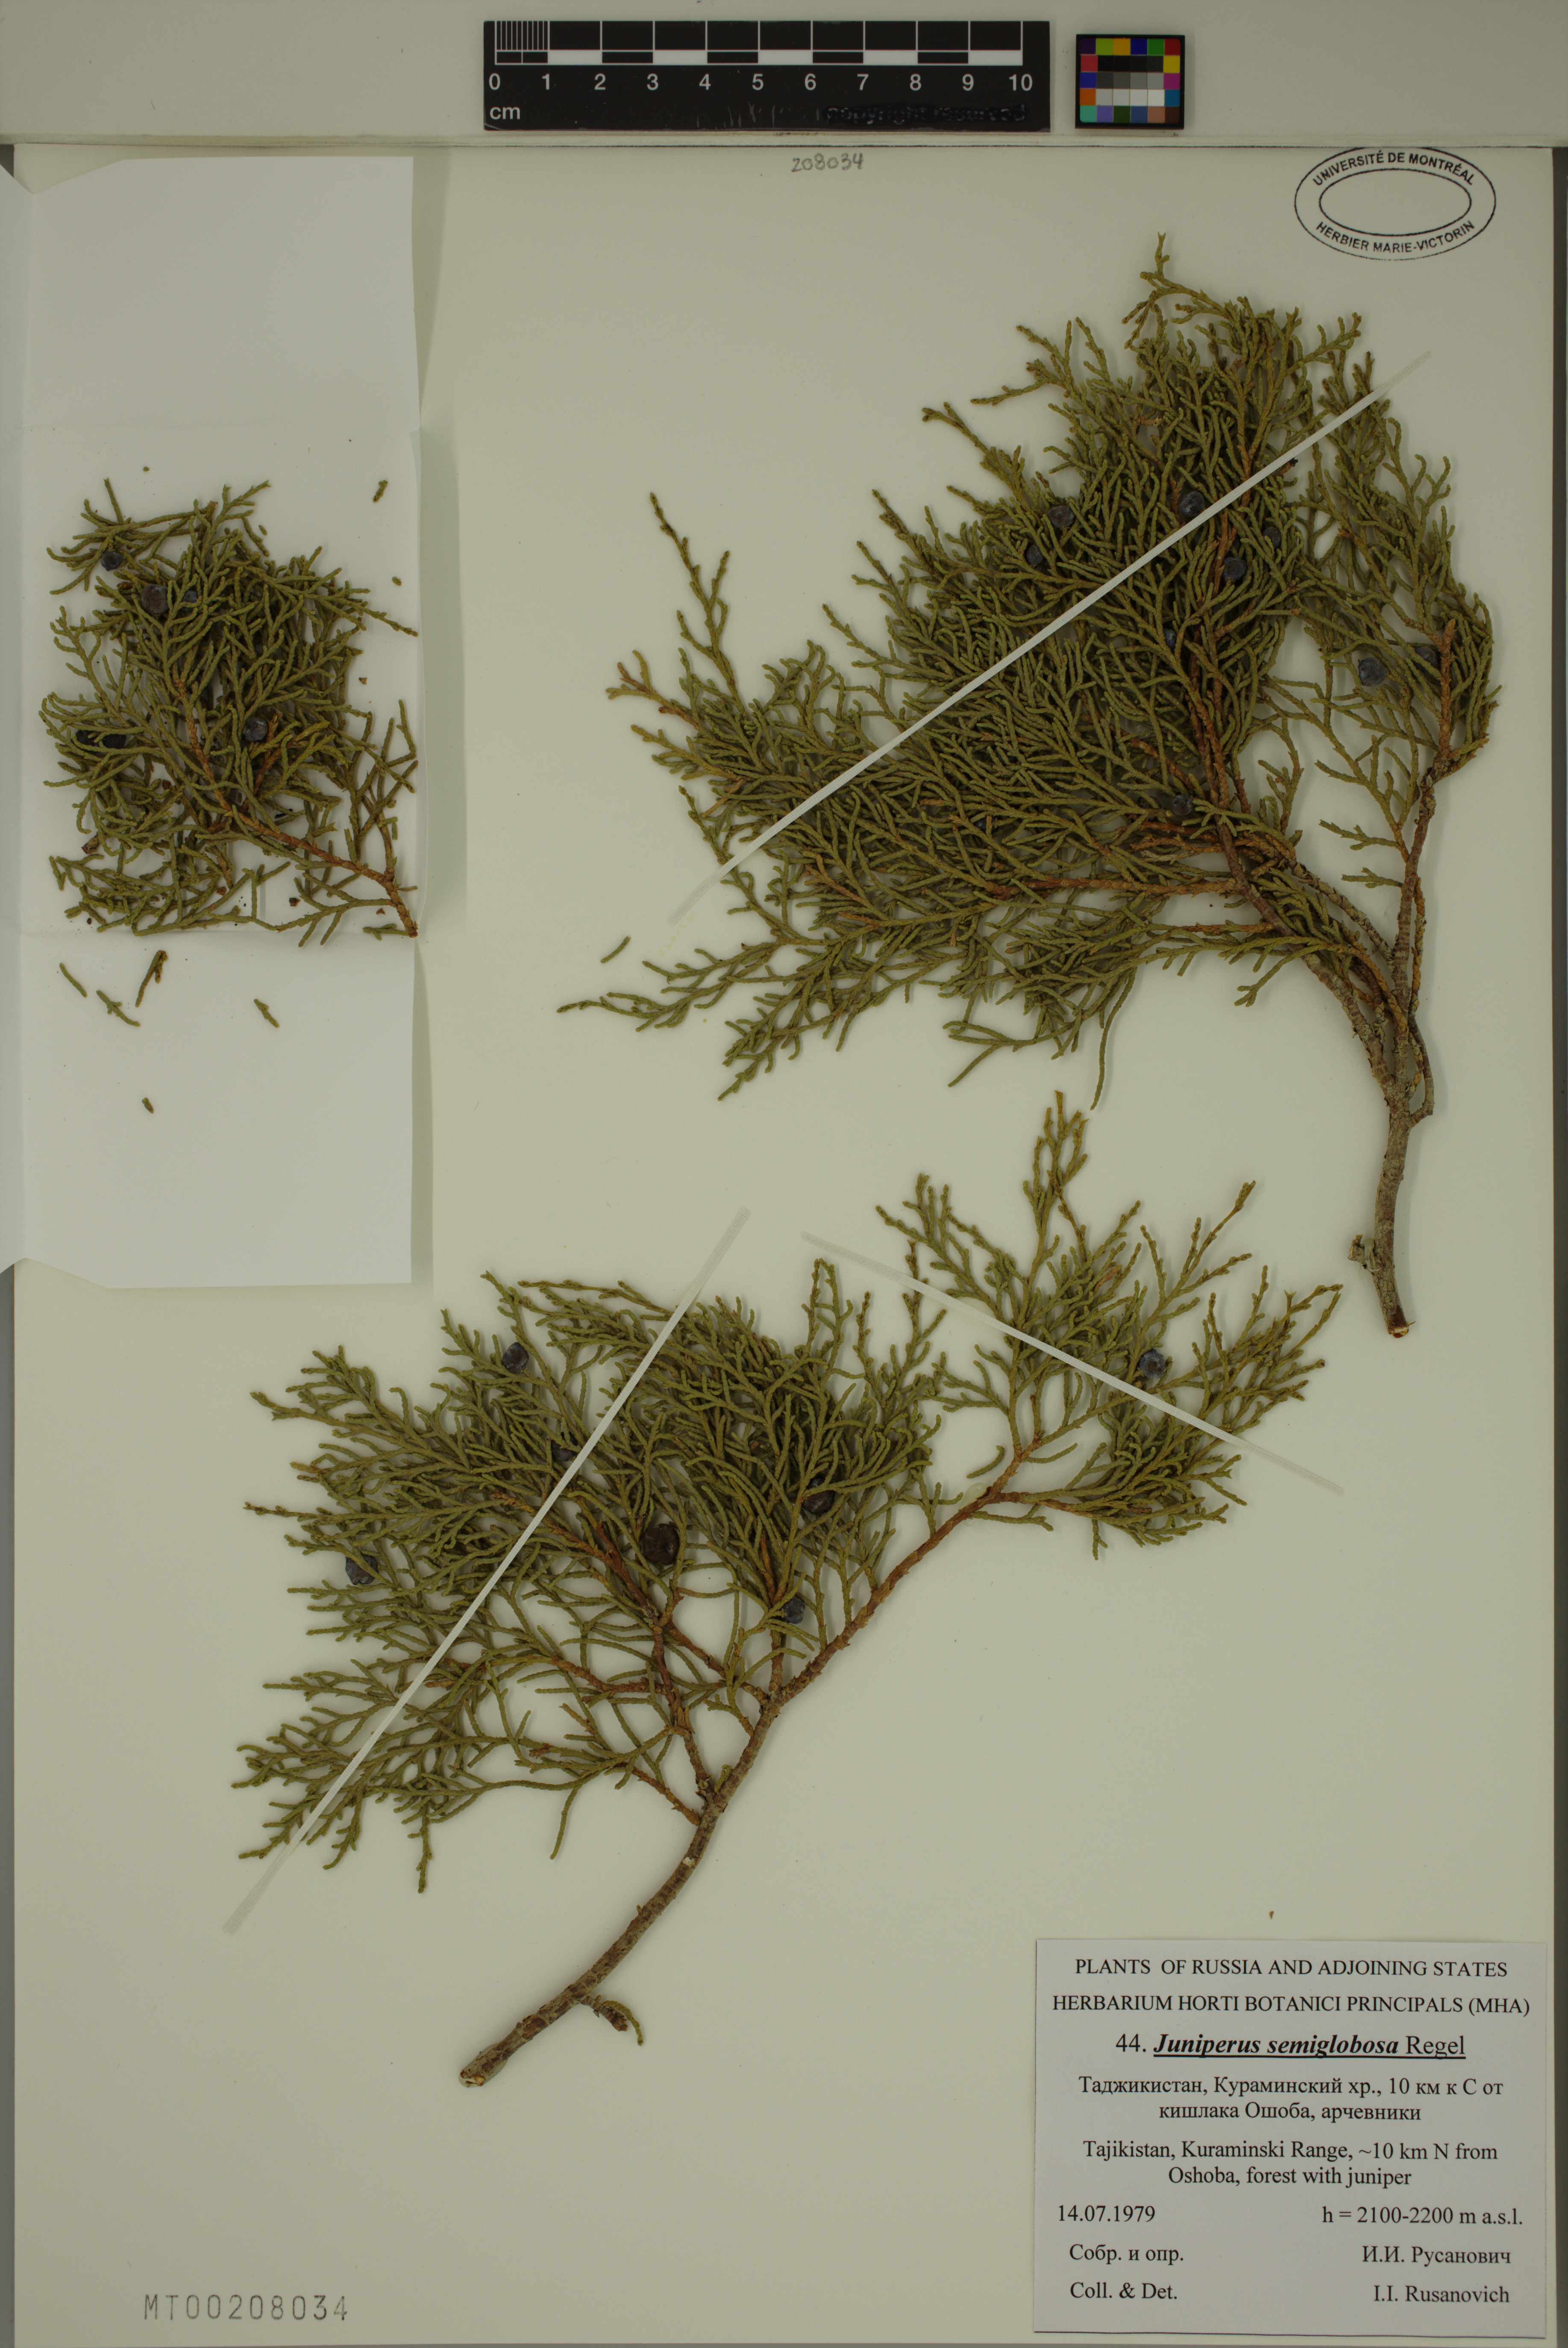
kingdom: Plantae
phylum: Tracheophyta
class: Pinopsida
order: Pinales
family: Cupressaceae
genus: Juniperus
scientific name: Juniperus semiglobosa
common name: Pencil cedar
